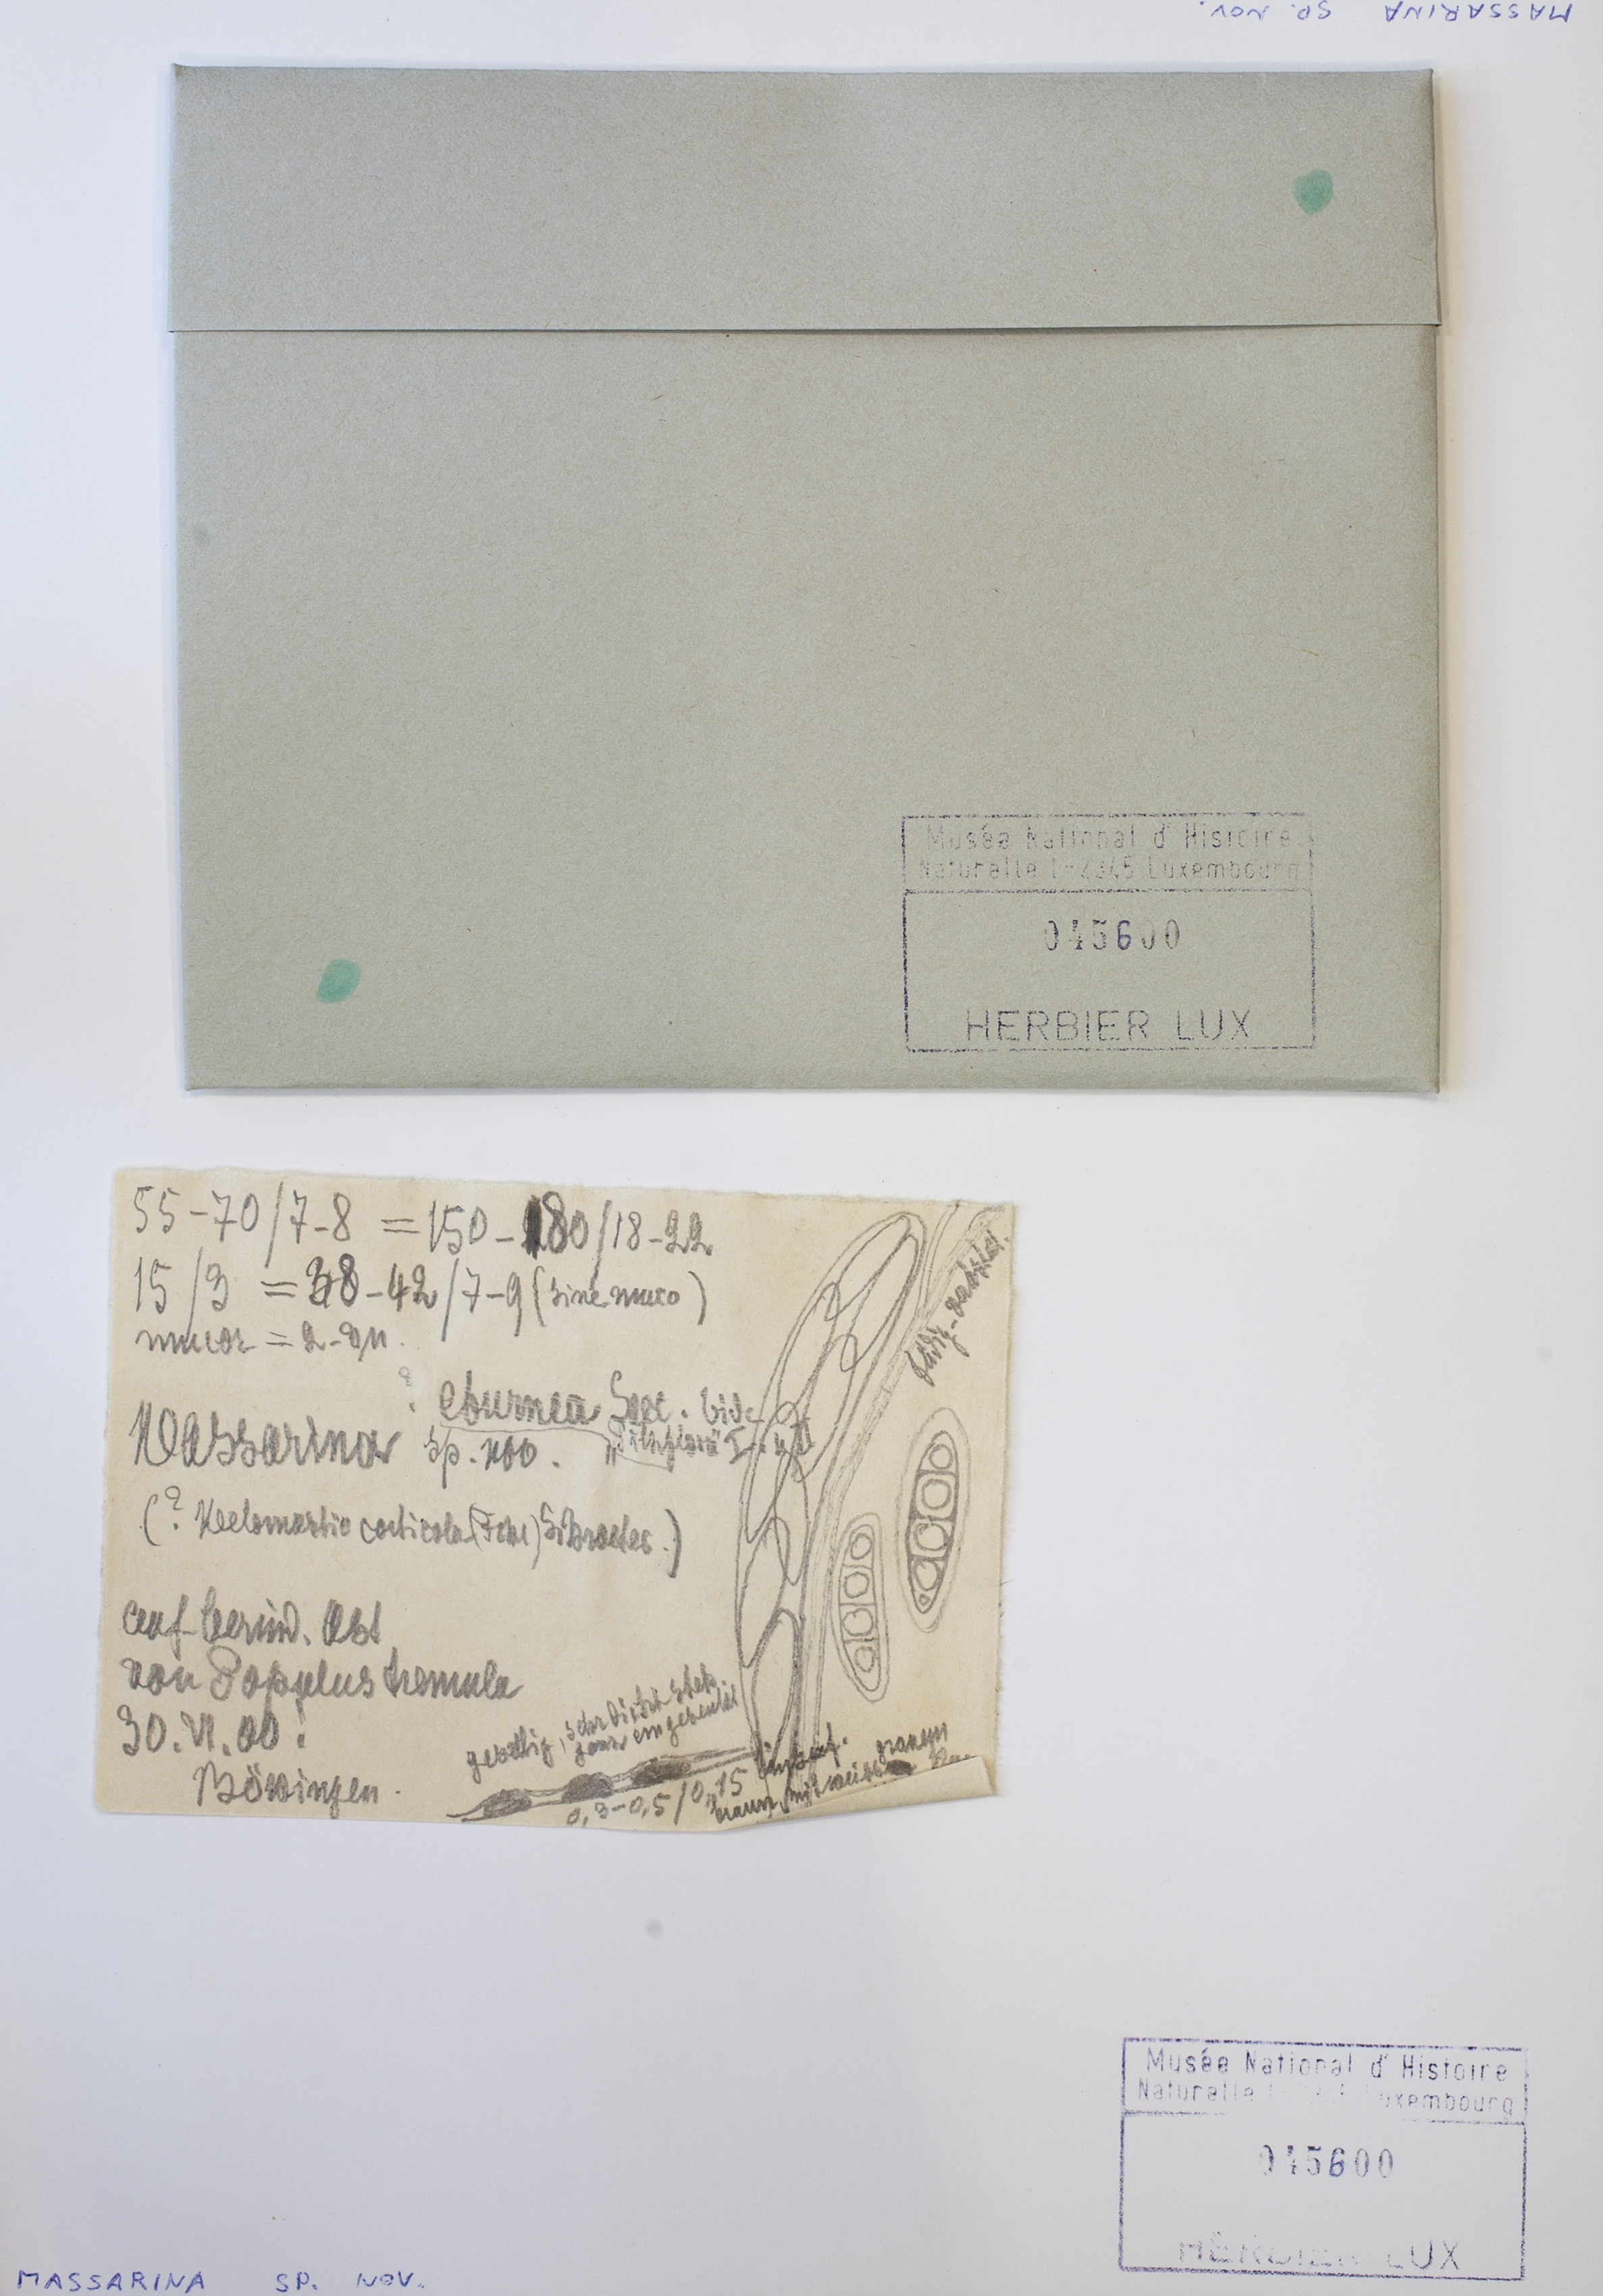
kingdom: Fungi
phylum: Ascomycota
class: Dothideomycetes
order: Pleosporales
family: Massarinaceae
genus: Massarina
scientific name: Massarina
